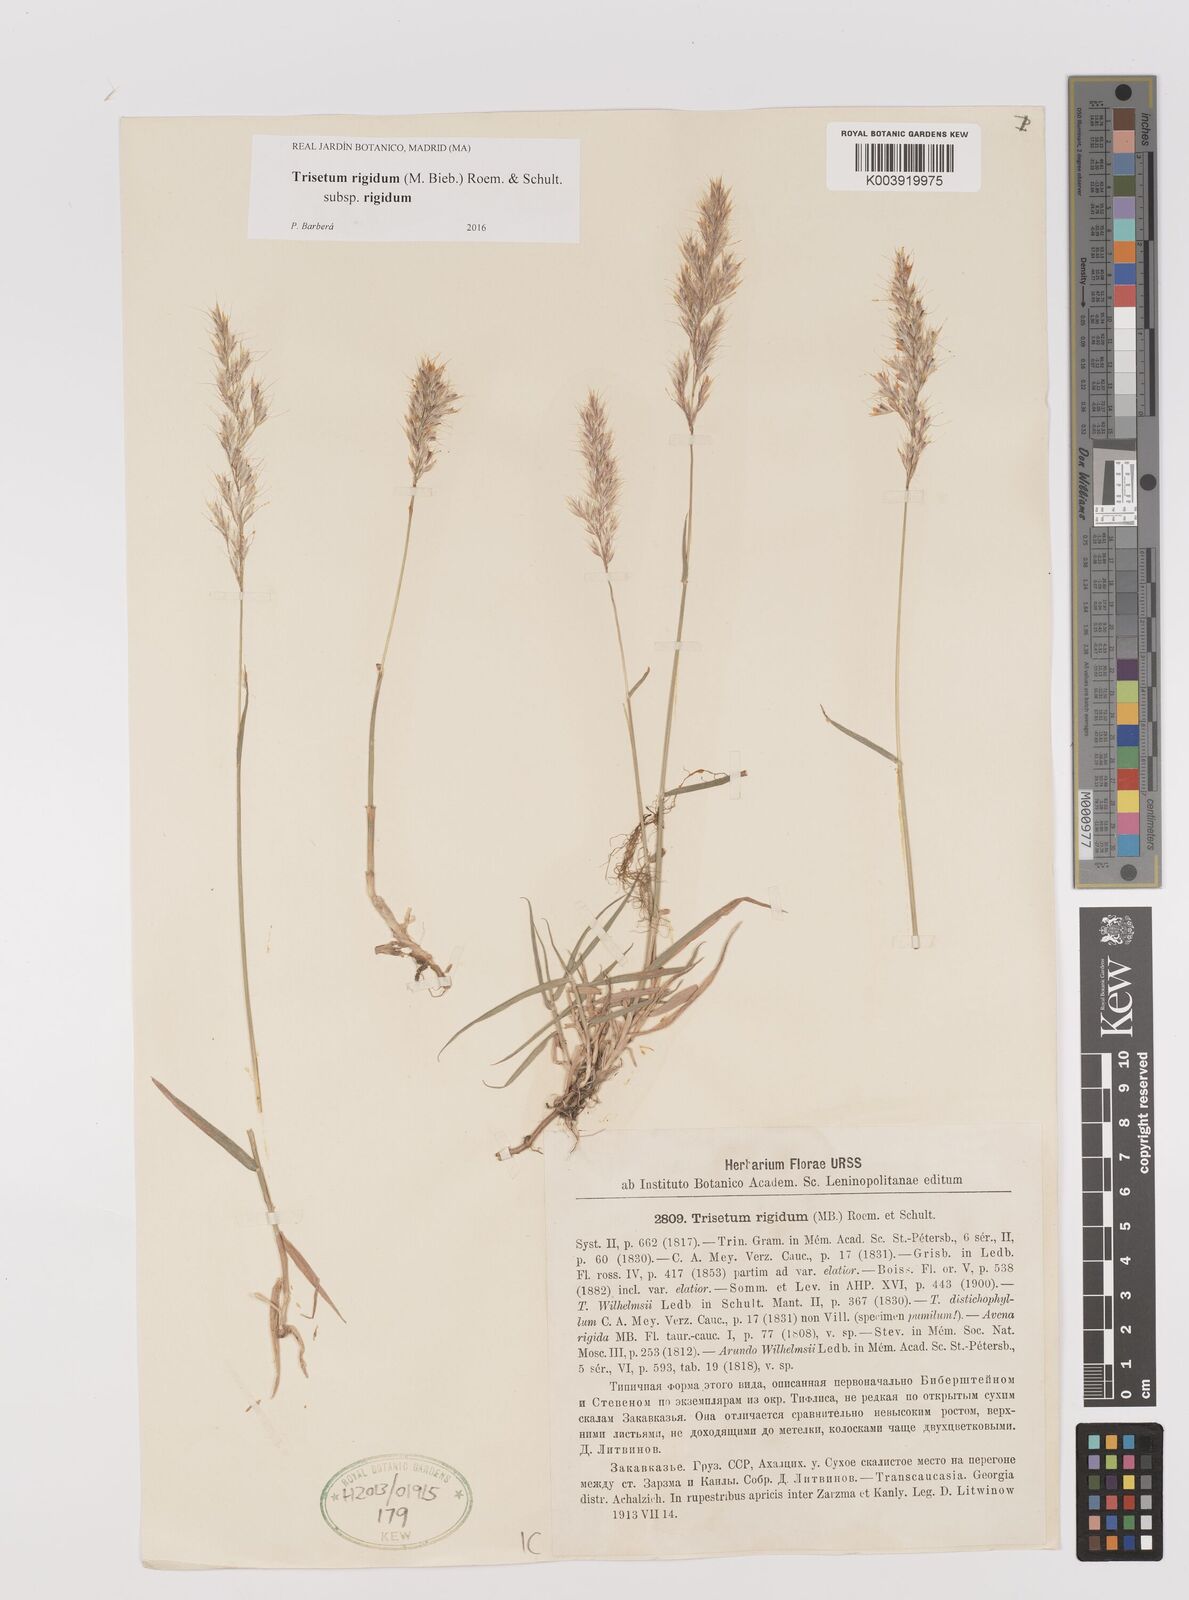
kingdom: Plantae
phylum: Tracheophyta
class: Liliopsida
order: Poales
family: Poaceae
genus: Trisetum
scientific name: Trisetum rigidum
